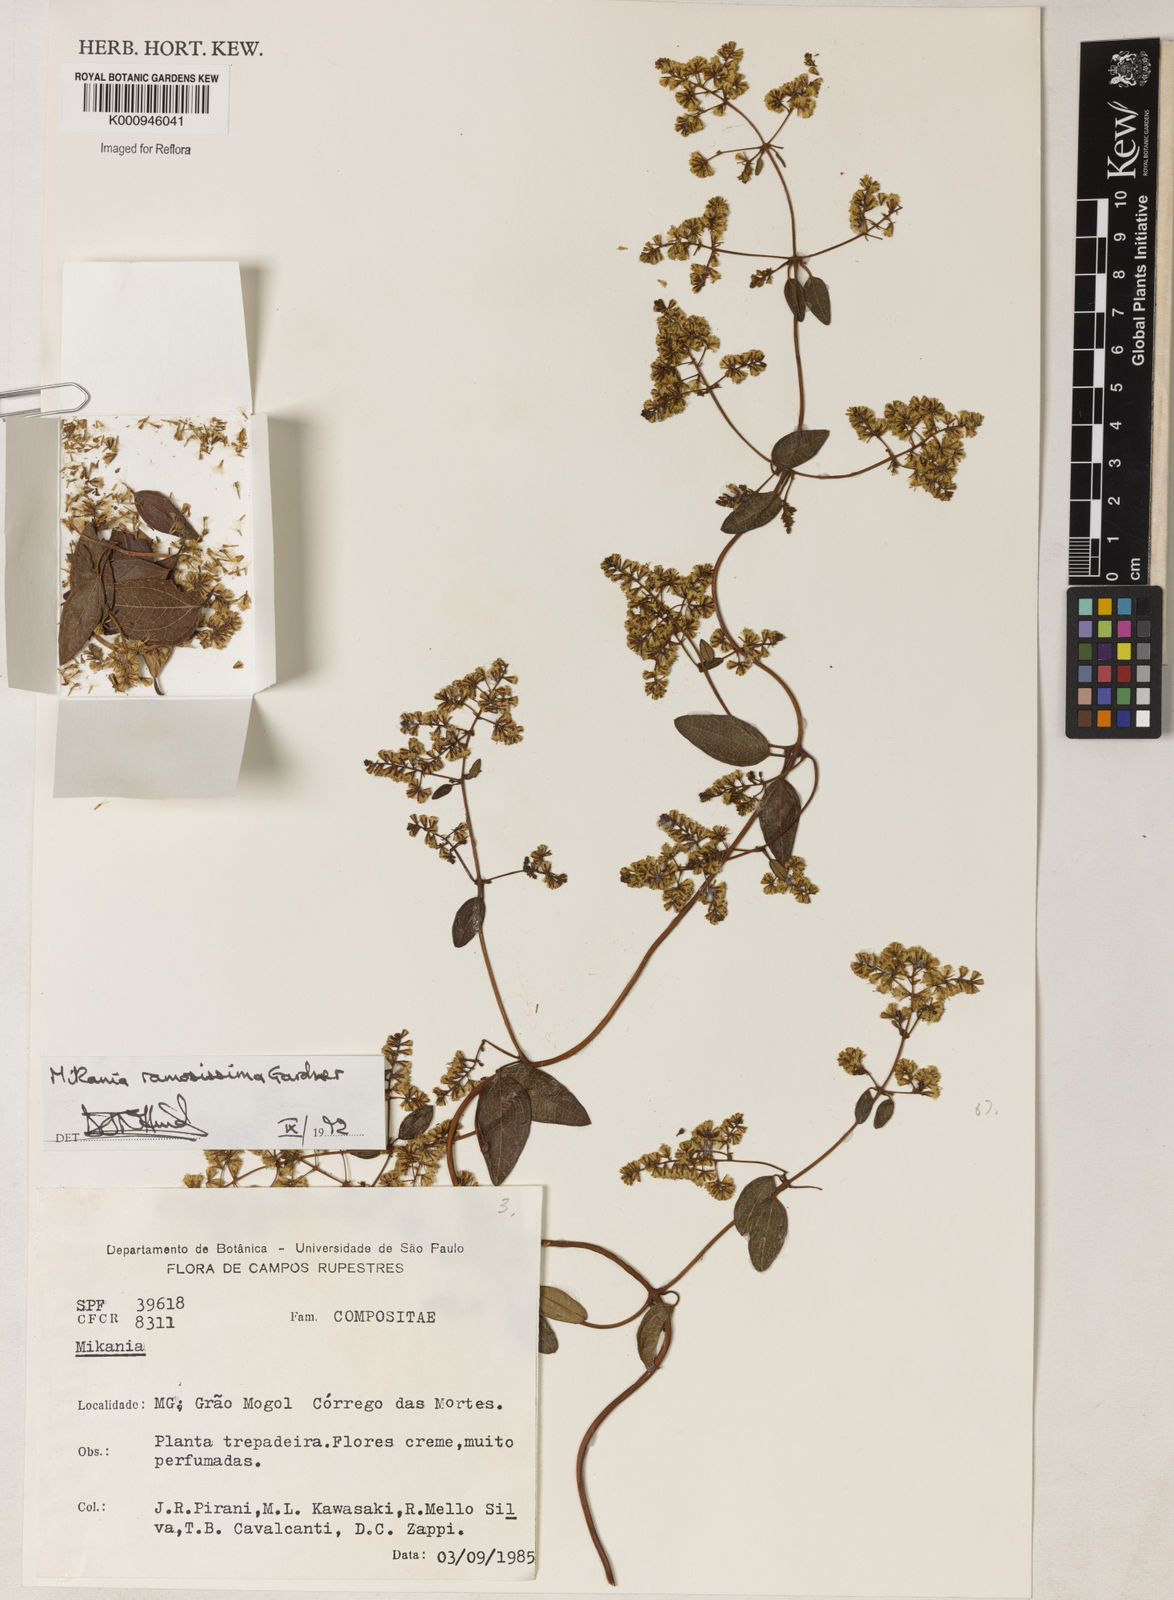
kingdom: Plantae
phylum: Tracheophyta
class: Magnoliopsida
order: Asterales
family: Asteraceae
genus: Mikania
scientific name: Mikania ramosissima
